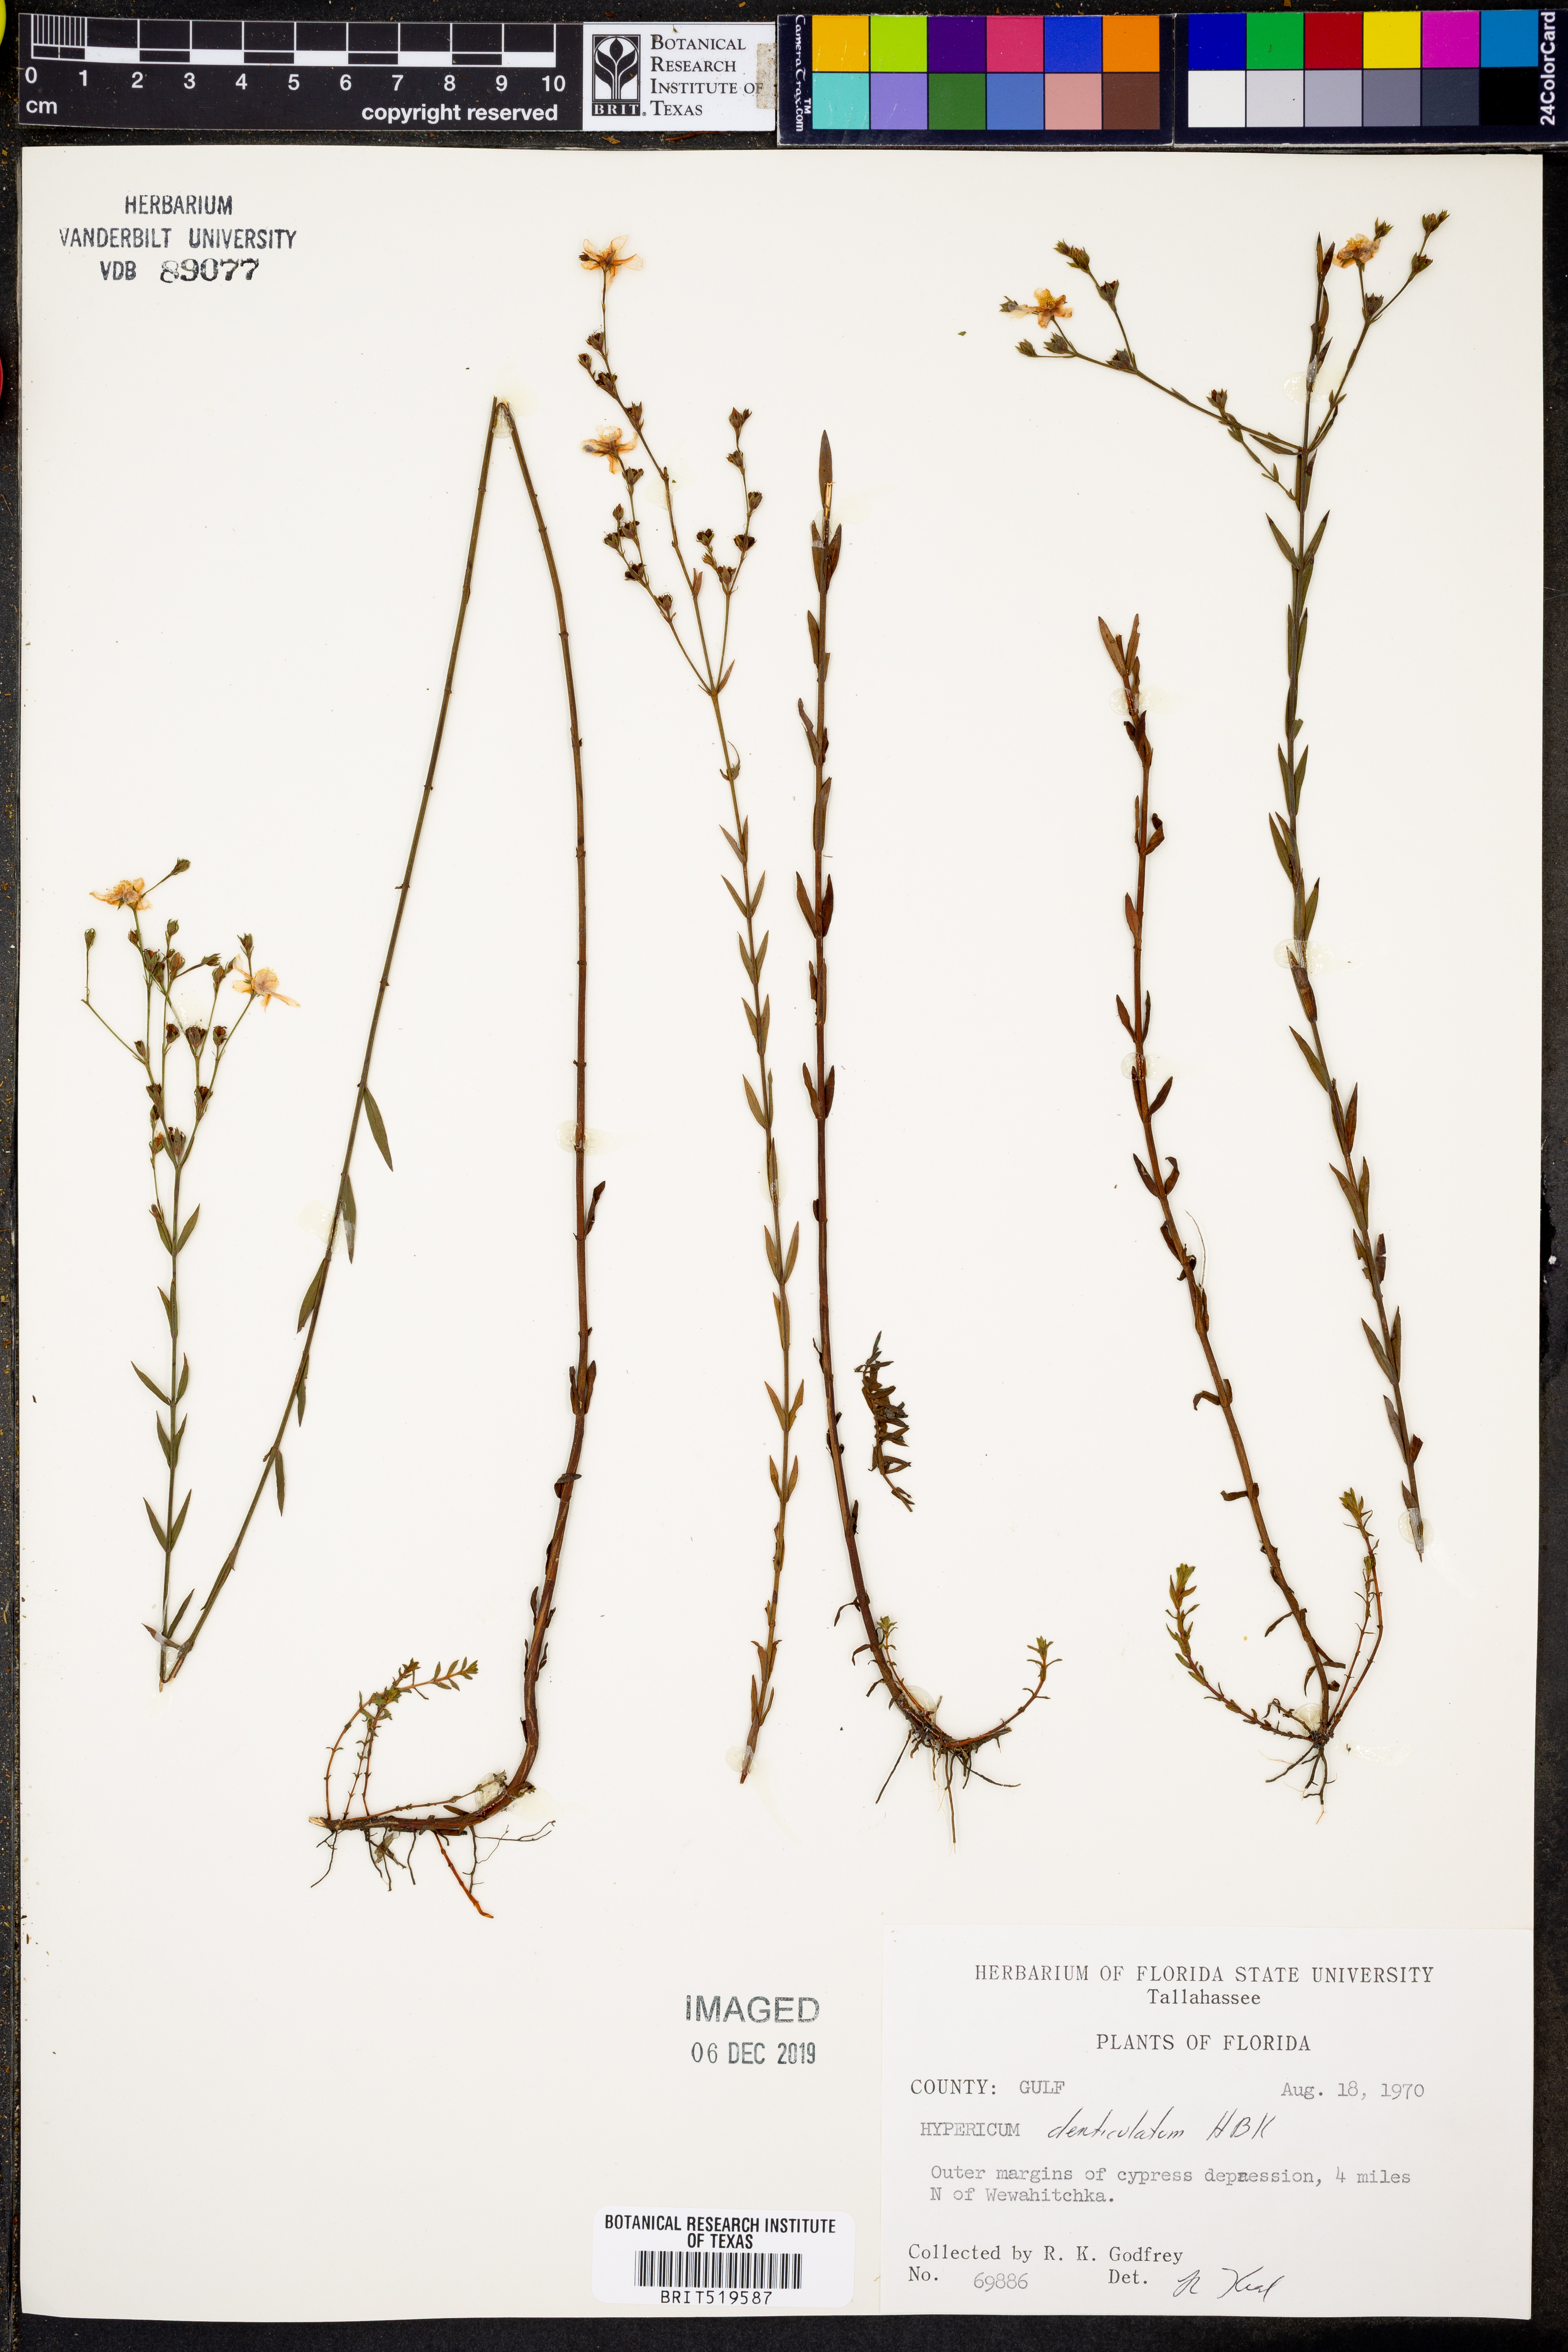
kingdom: Plantae
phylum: Tracheophyta
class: Magnoliopsida
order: Malpighiales
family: Hypericaceae
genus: Hypericum
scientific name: Hypericum denticulatum
